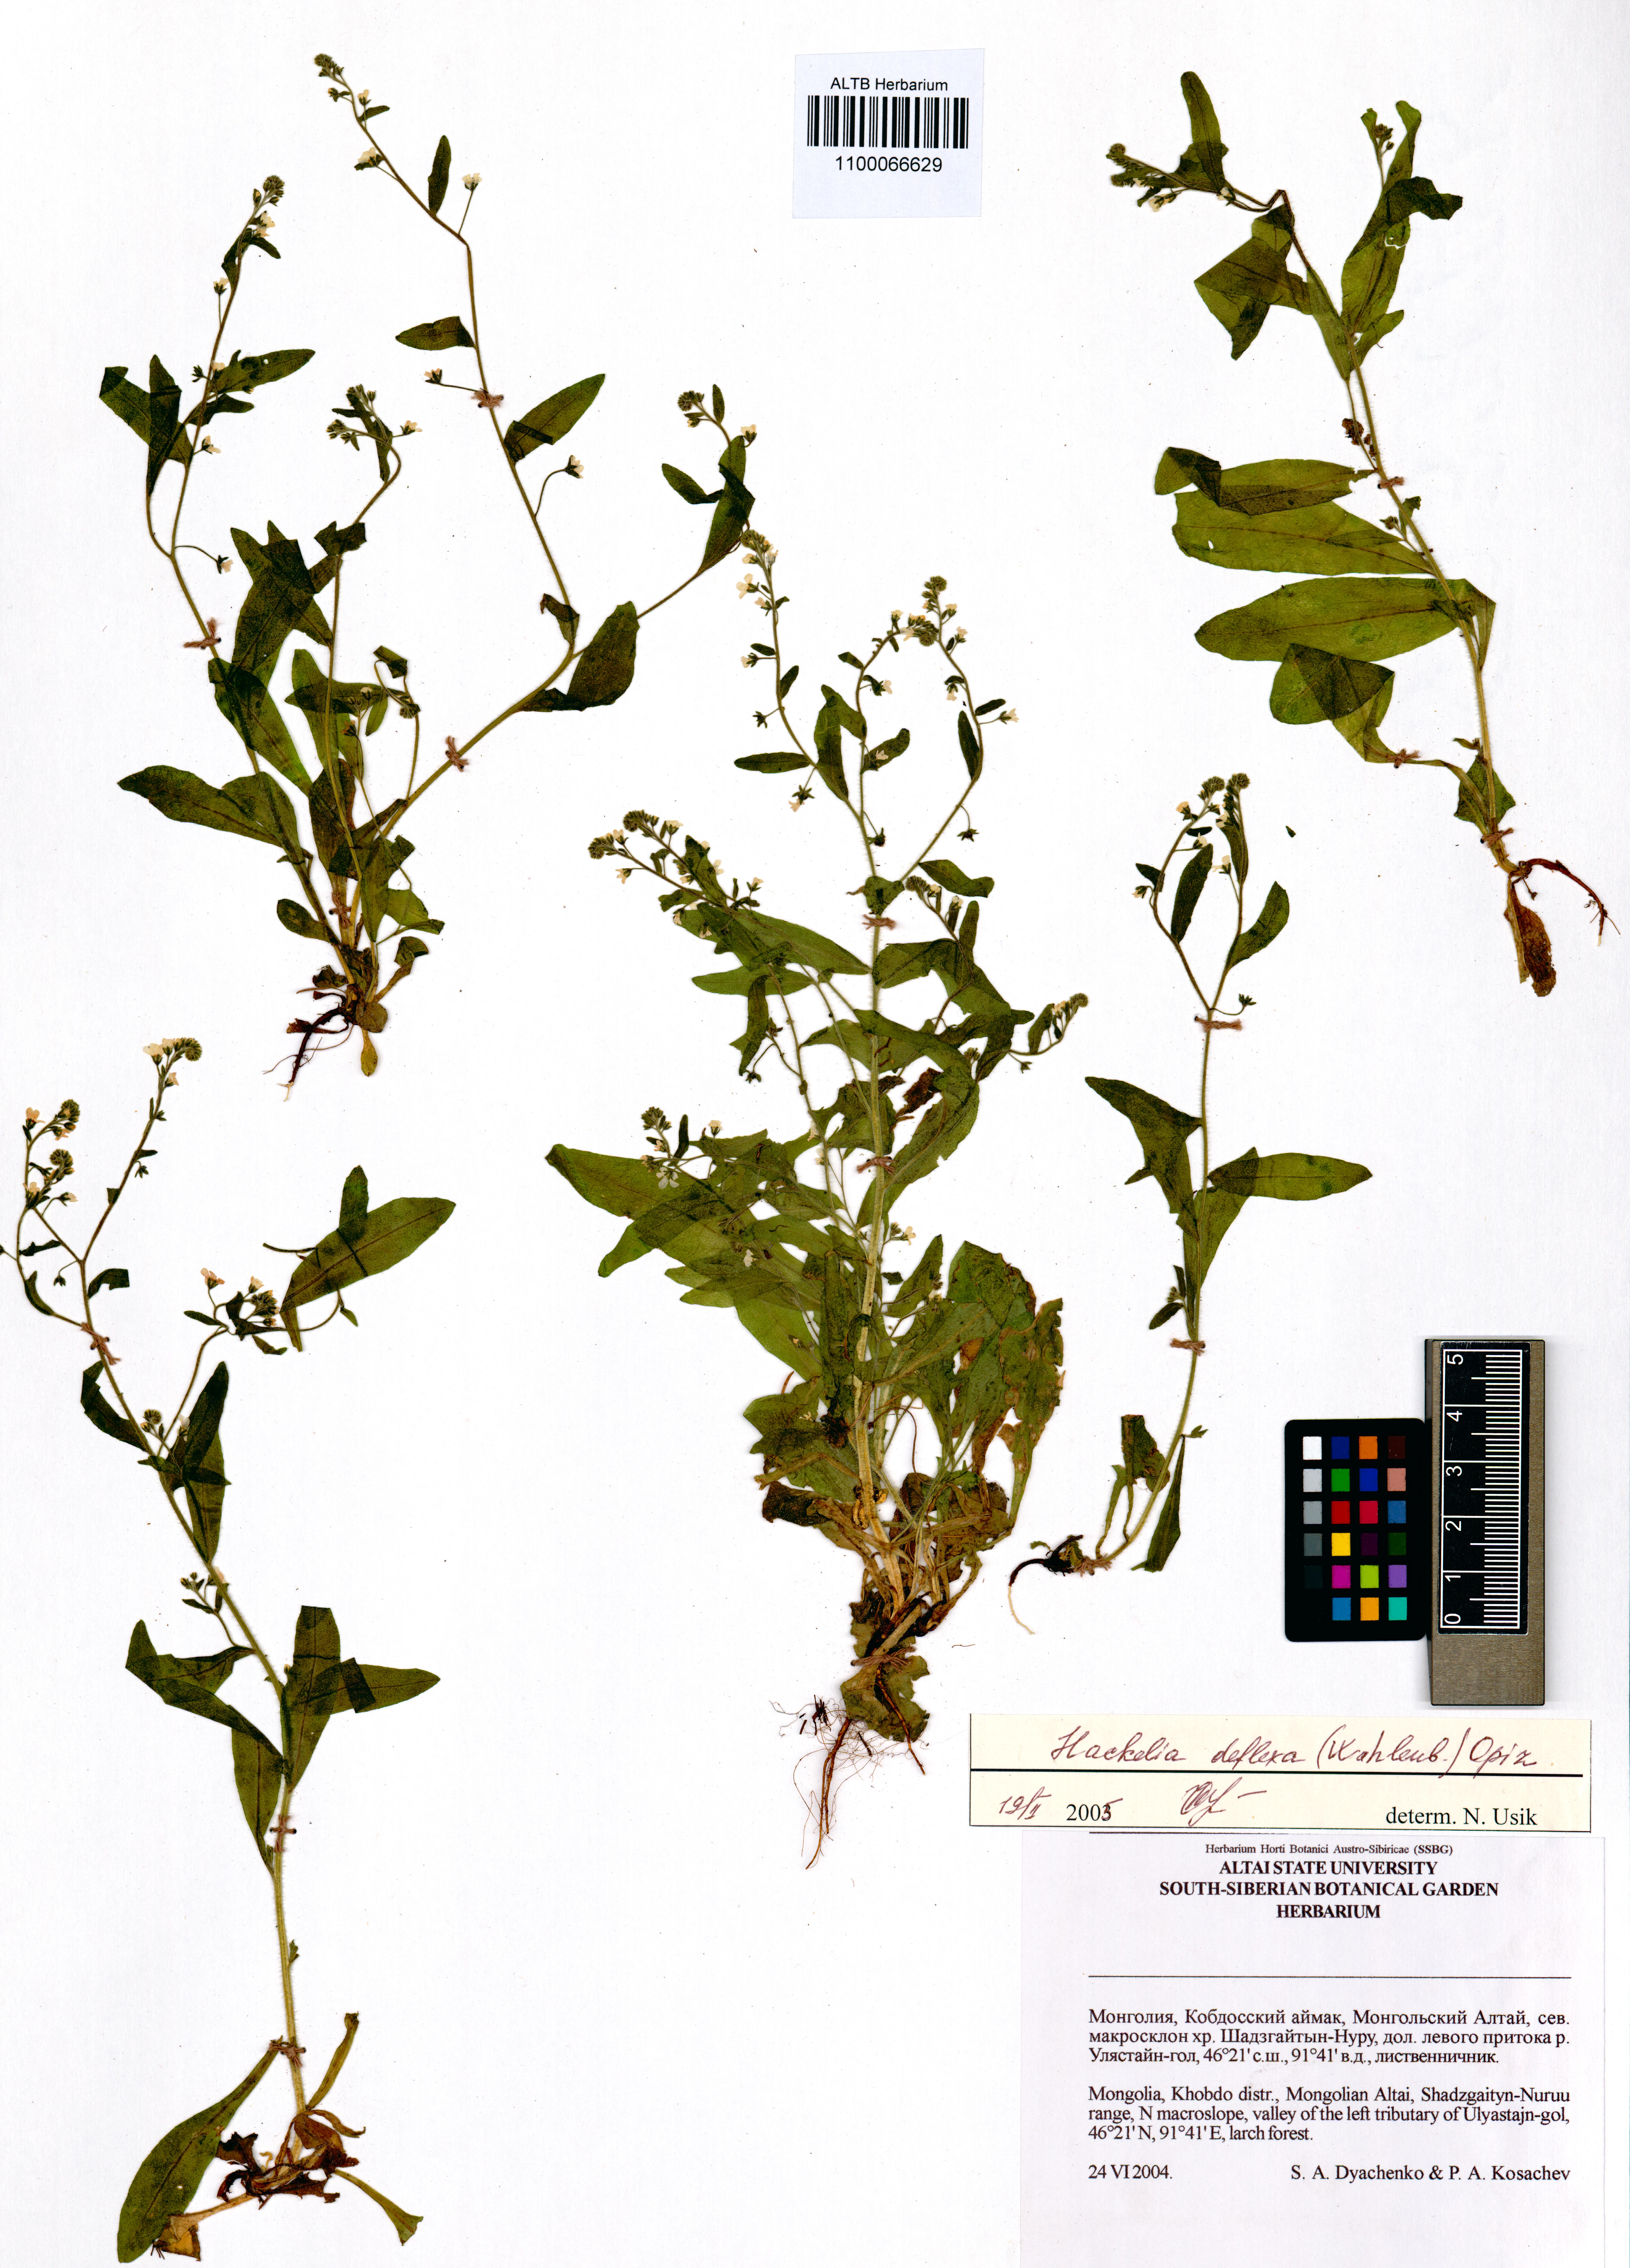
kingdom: Plantae
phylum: Tracheophyta
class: Magnoliopsida
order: Boraginales
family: Boraginaceae
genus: Hackelia
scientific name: Hackelia deflexa
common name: Nodding stickseed
